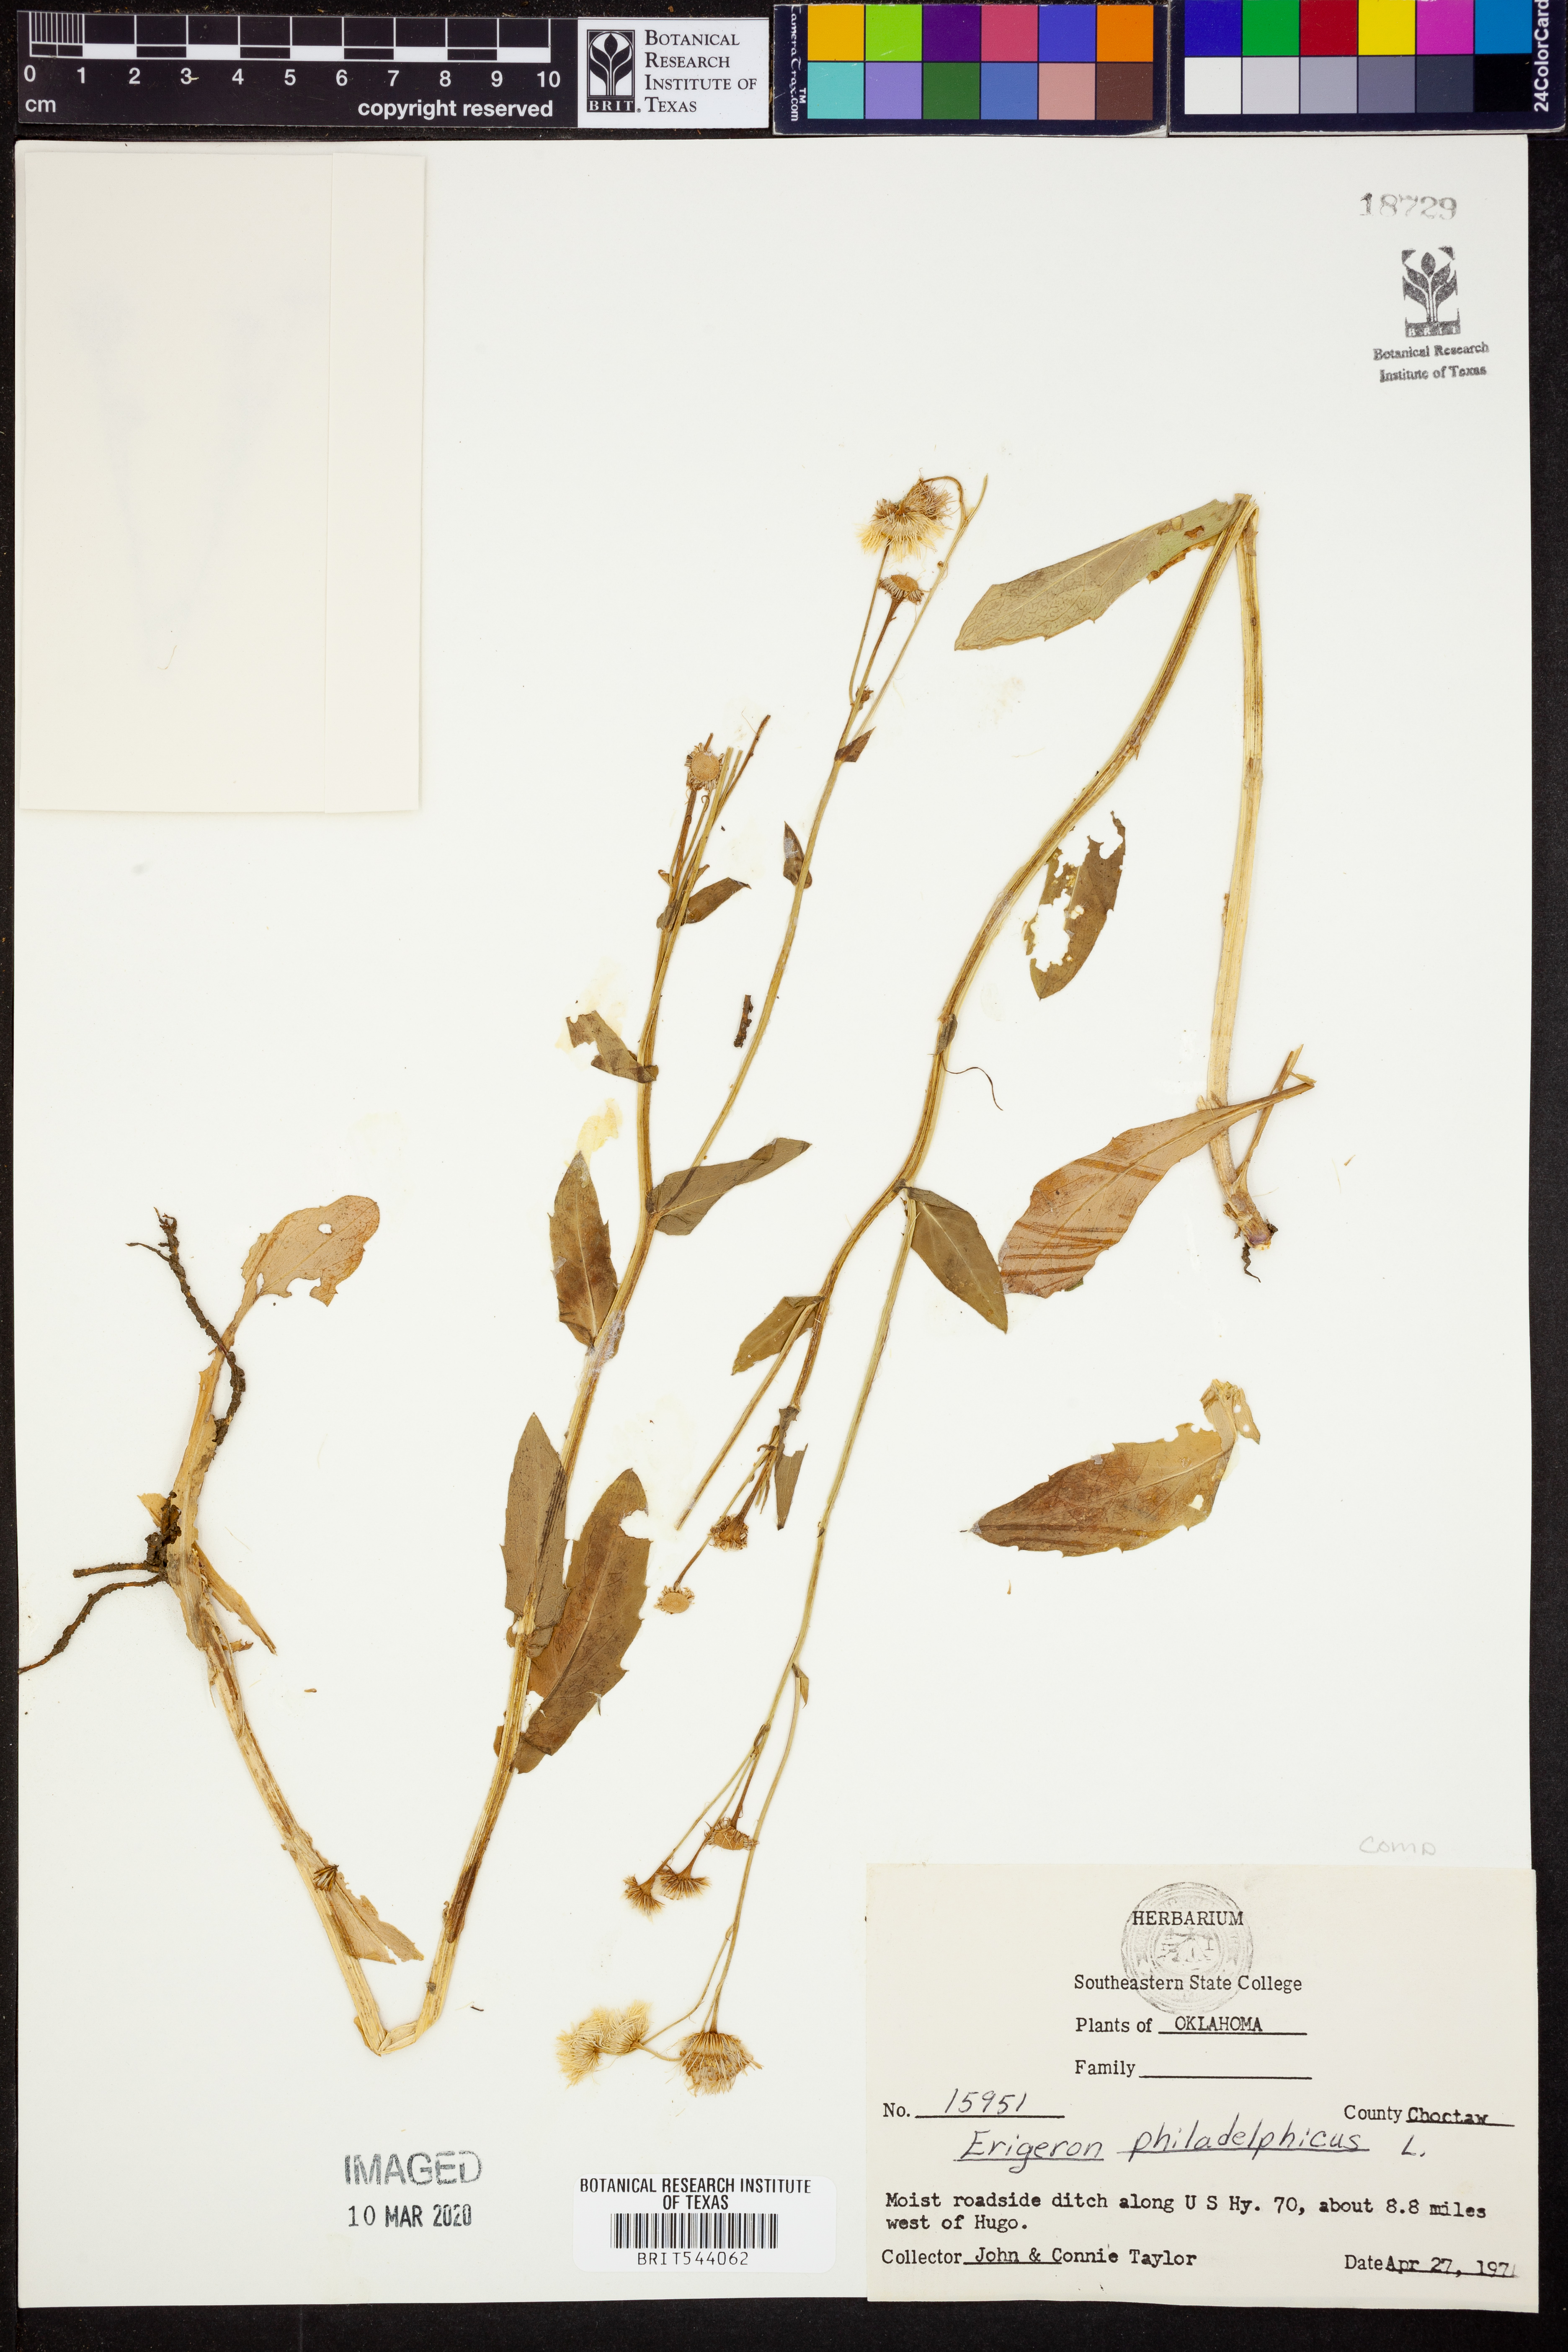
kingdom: Plantae
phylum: Tracheophyta
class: Magnoliopsida
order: Asterales
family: Asteraceae
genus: Erigeron
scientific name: Erigeron philadelphicus
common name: Robin's-plantain
